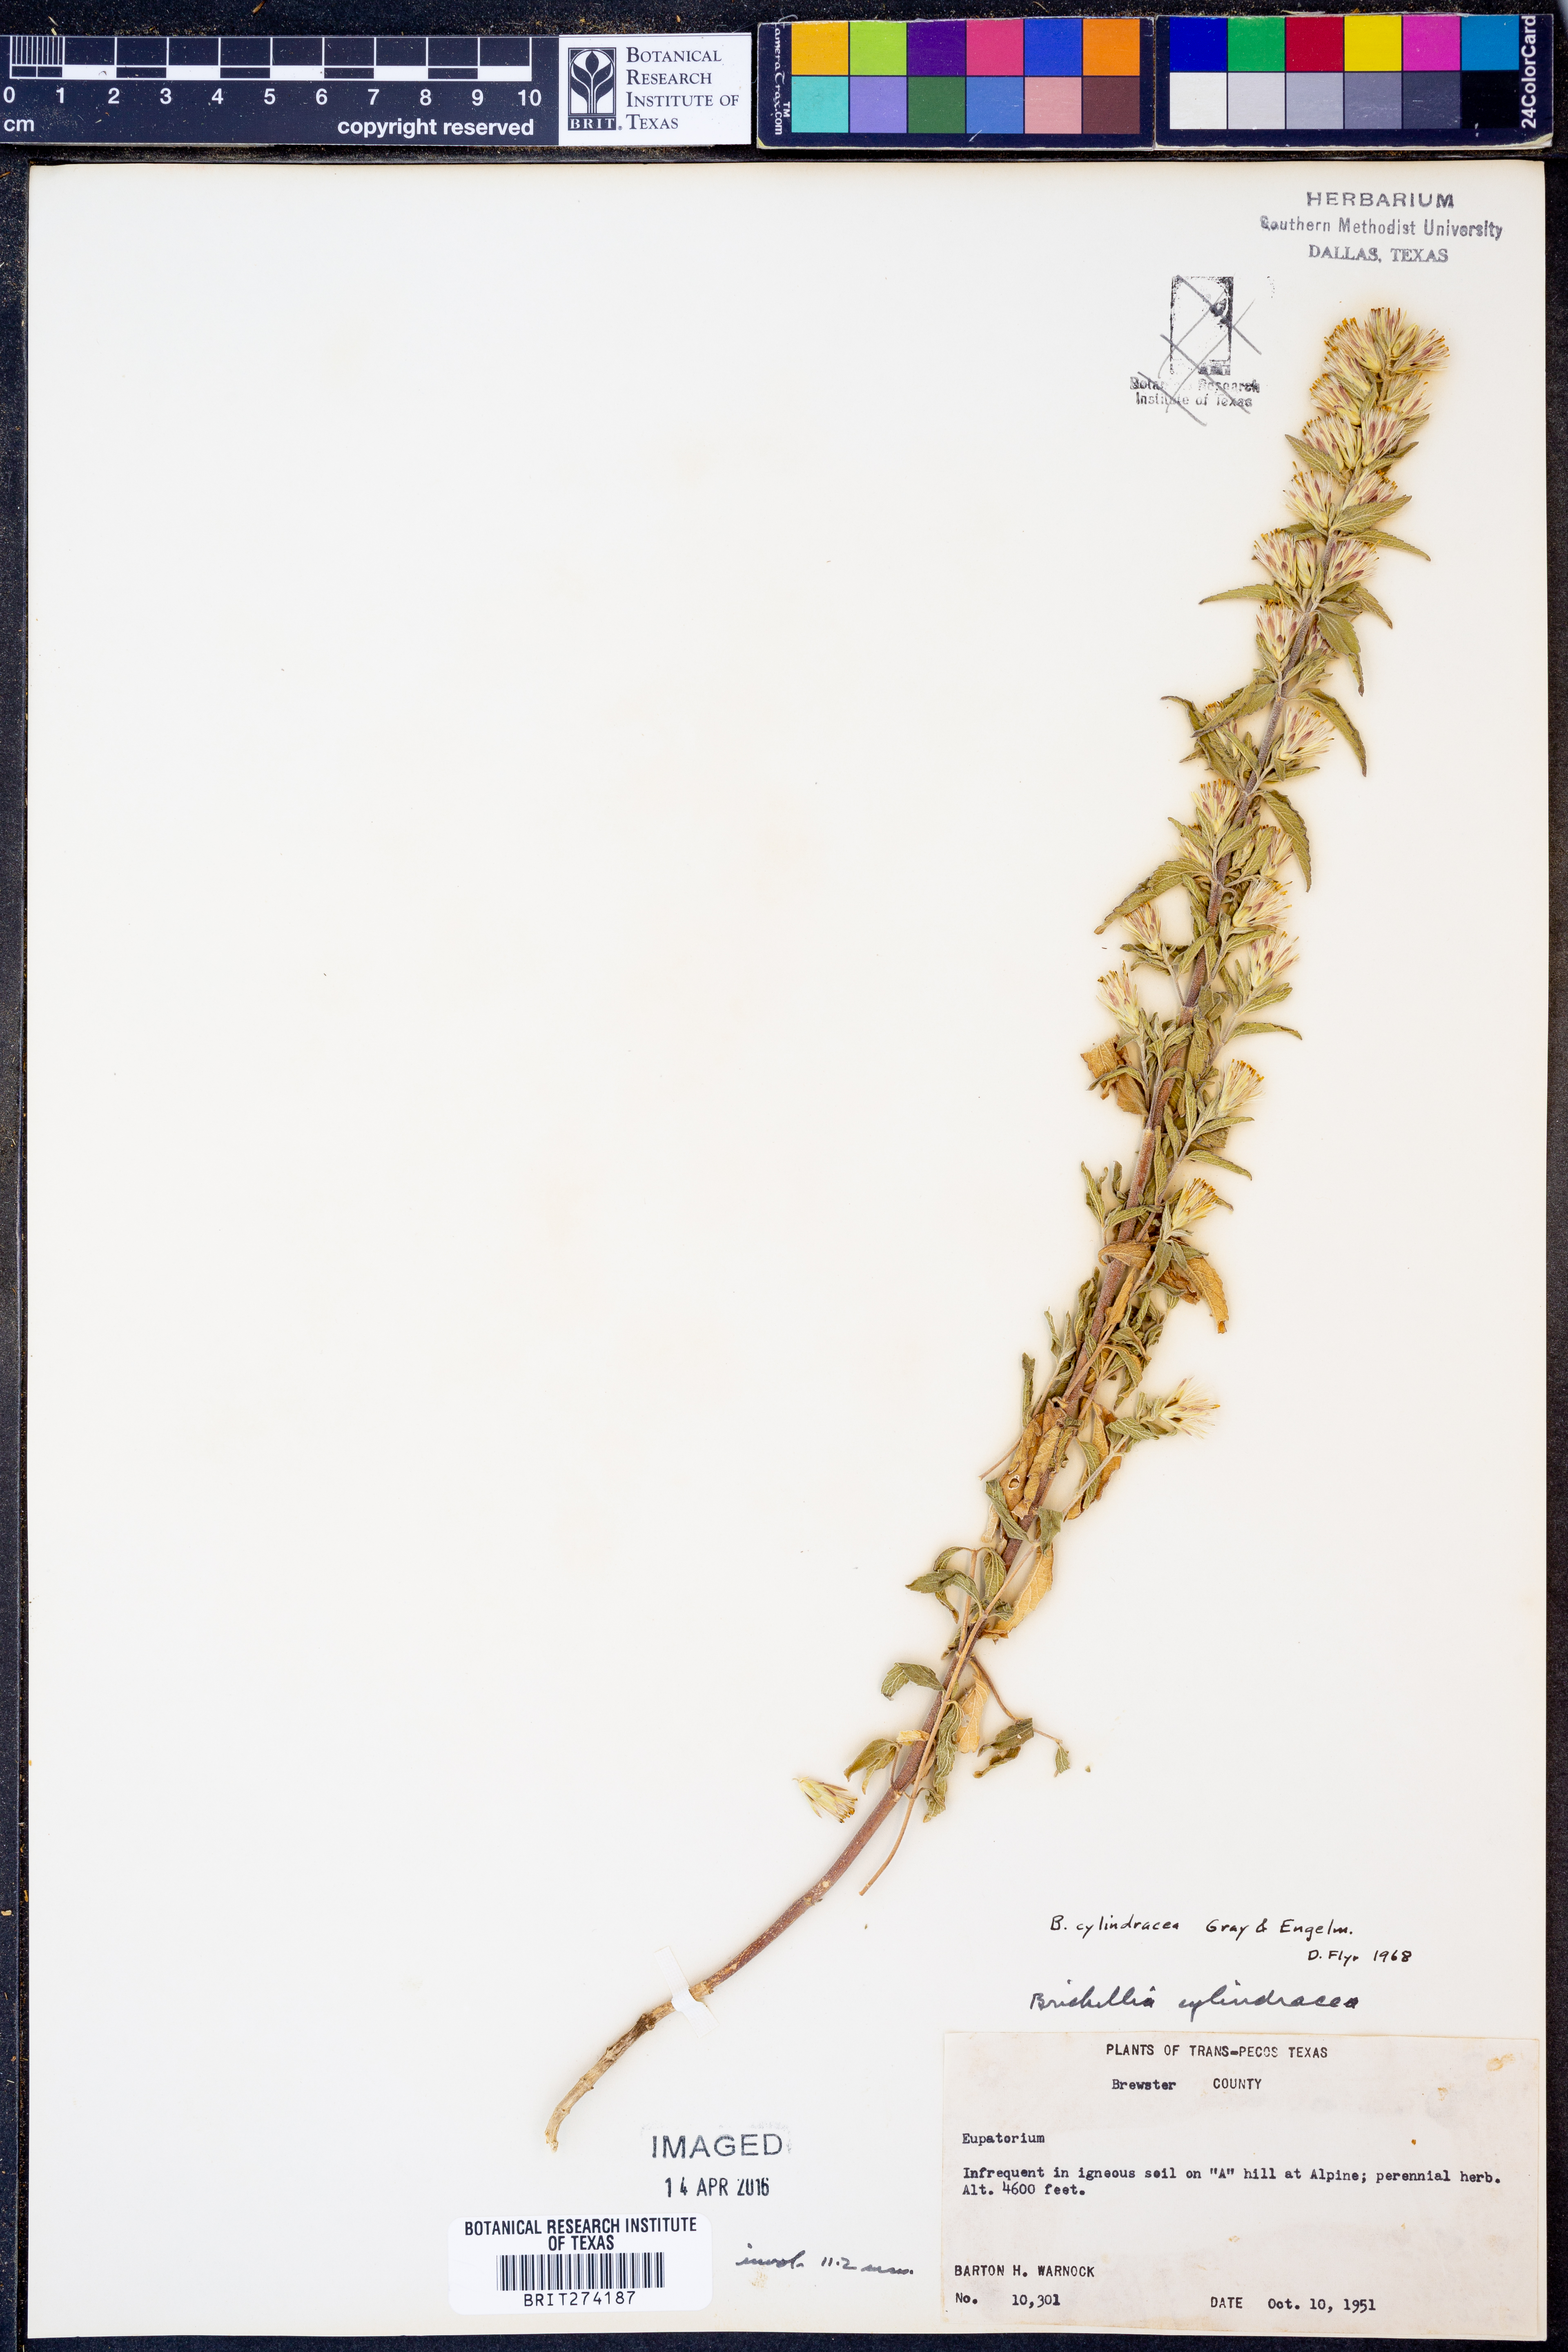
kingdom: Plantae
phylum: Tracheophyta
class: Magnoliopsida
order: Asterales
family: Asteraceae
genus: Brickellia
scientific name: Brickellia cylindracea
